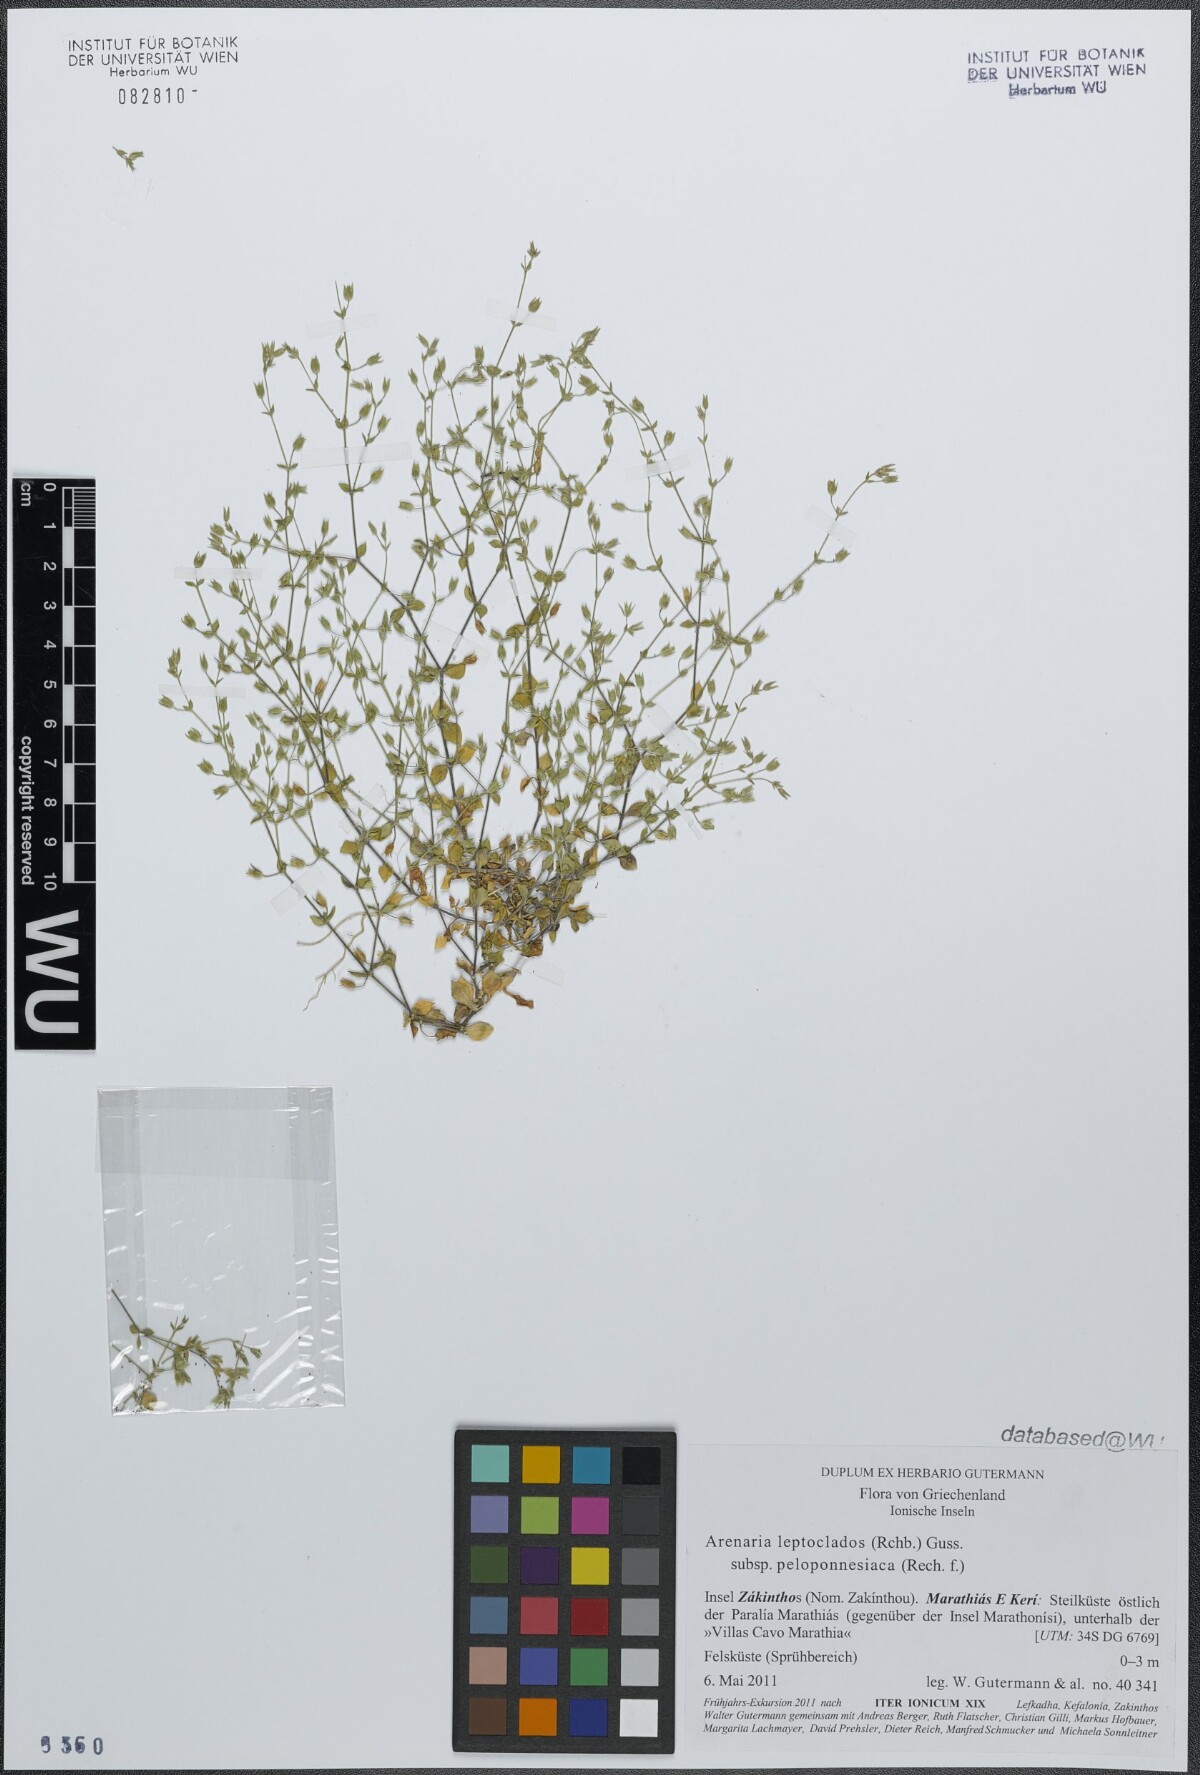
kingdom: Plantae
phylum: Tracheophyta
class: Magnoliopsida
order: Caryophyllales
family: Caryophyllaceae
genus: Arenaria
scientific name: Arenaria leptoclados
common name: Thyme-leaved sandwort
